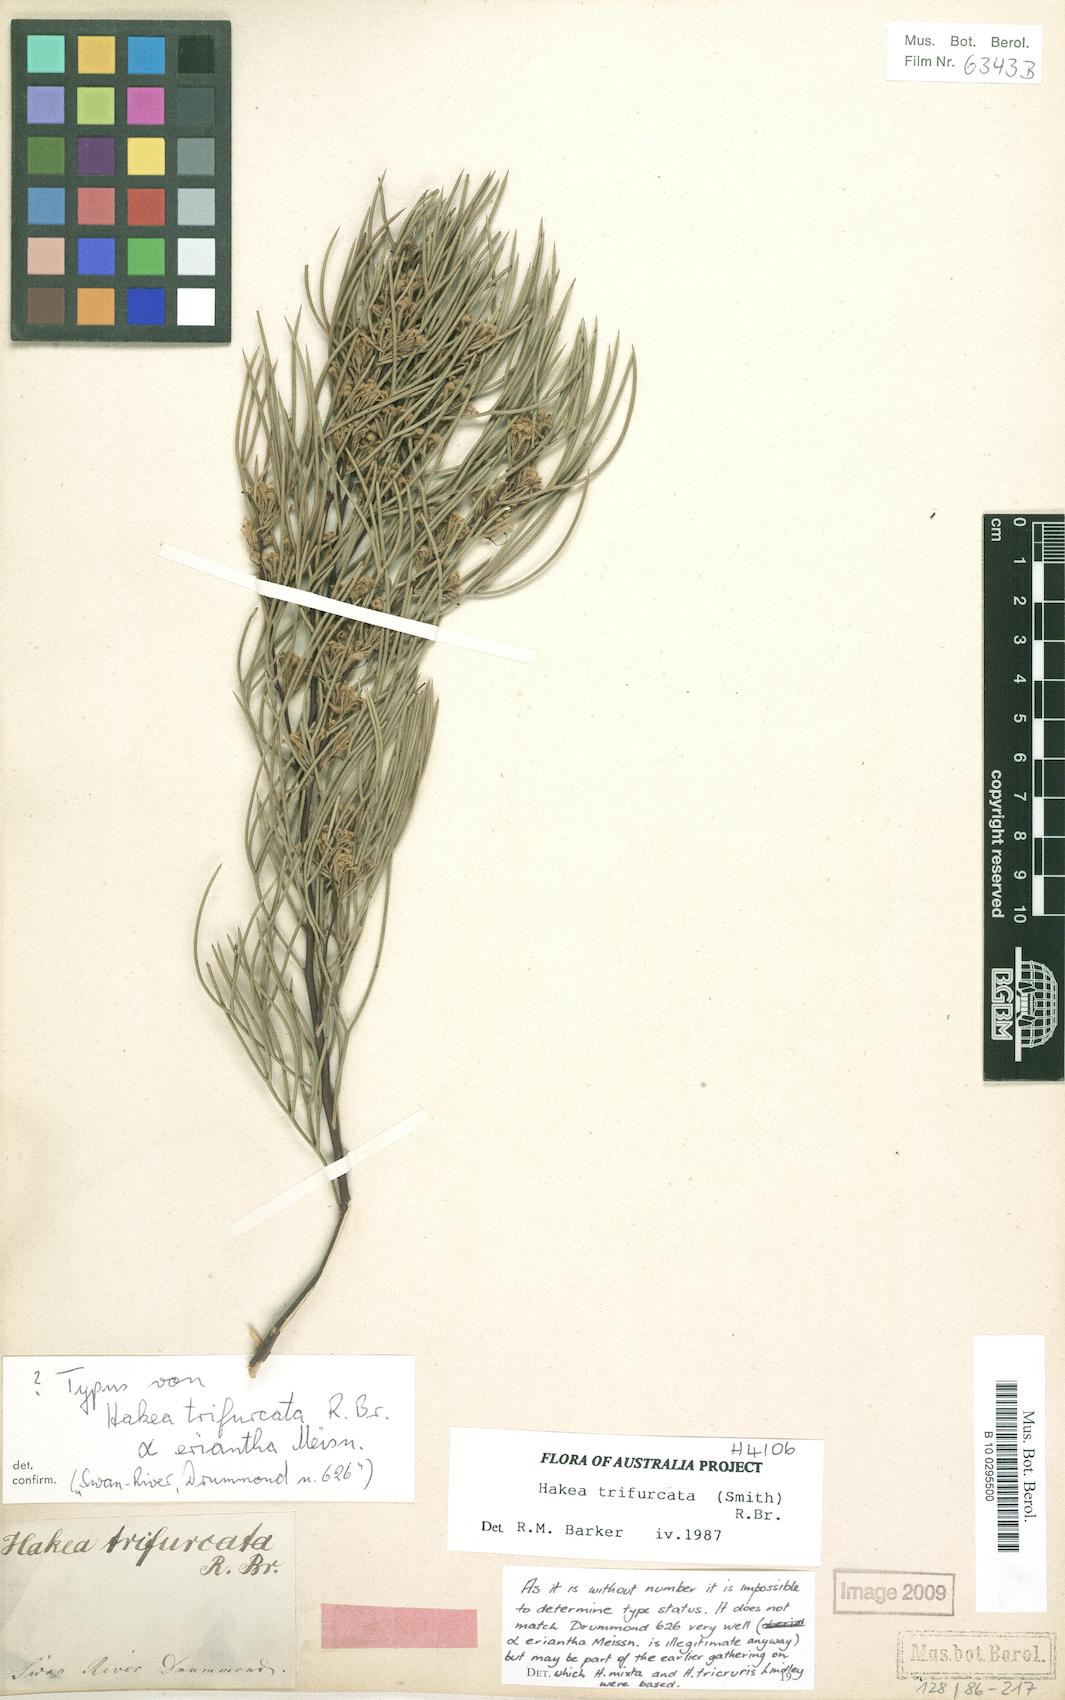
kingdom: Plantae
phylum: Tracheophyta
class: Magnoliopsida
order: Proteales
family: Proteaceae
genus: Hakea
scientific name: Hakea trifurcata
